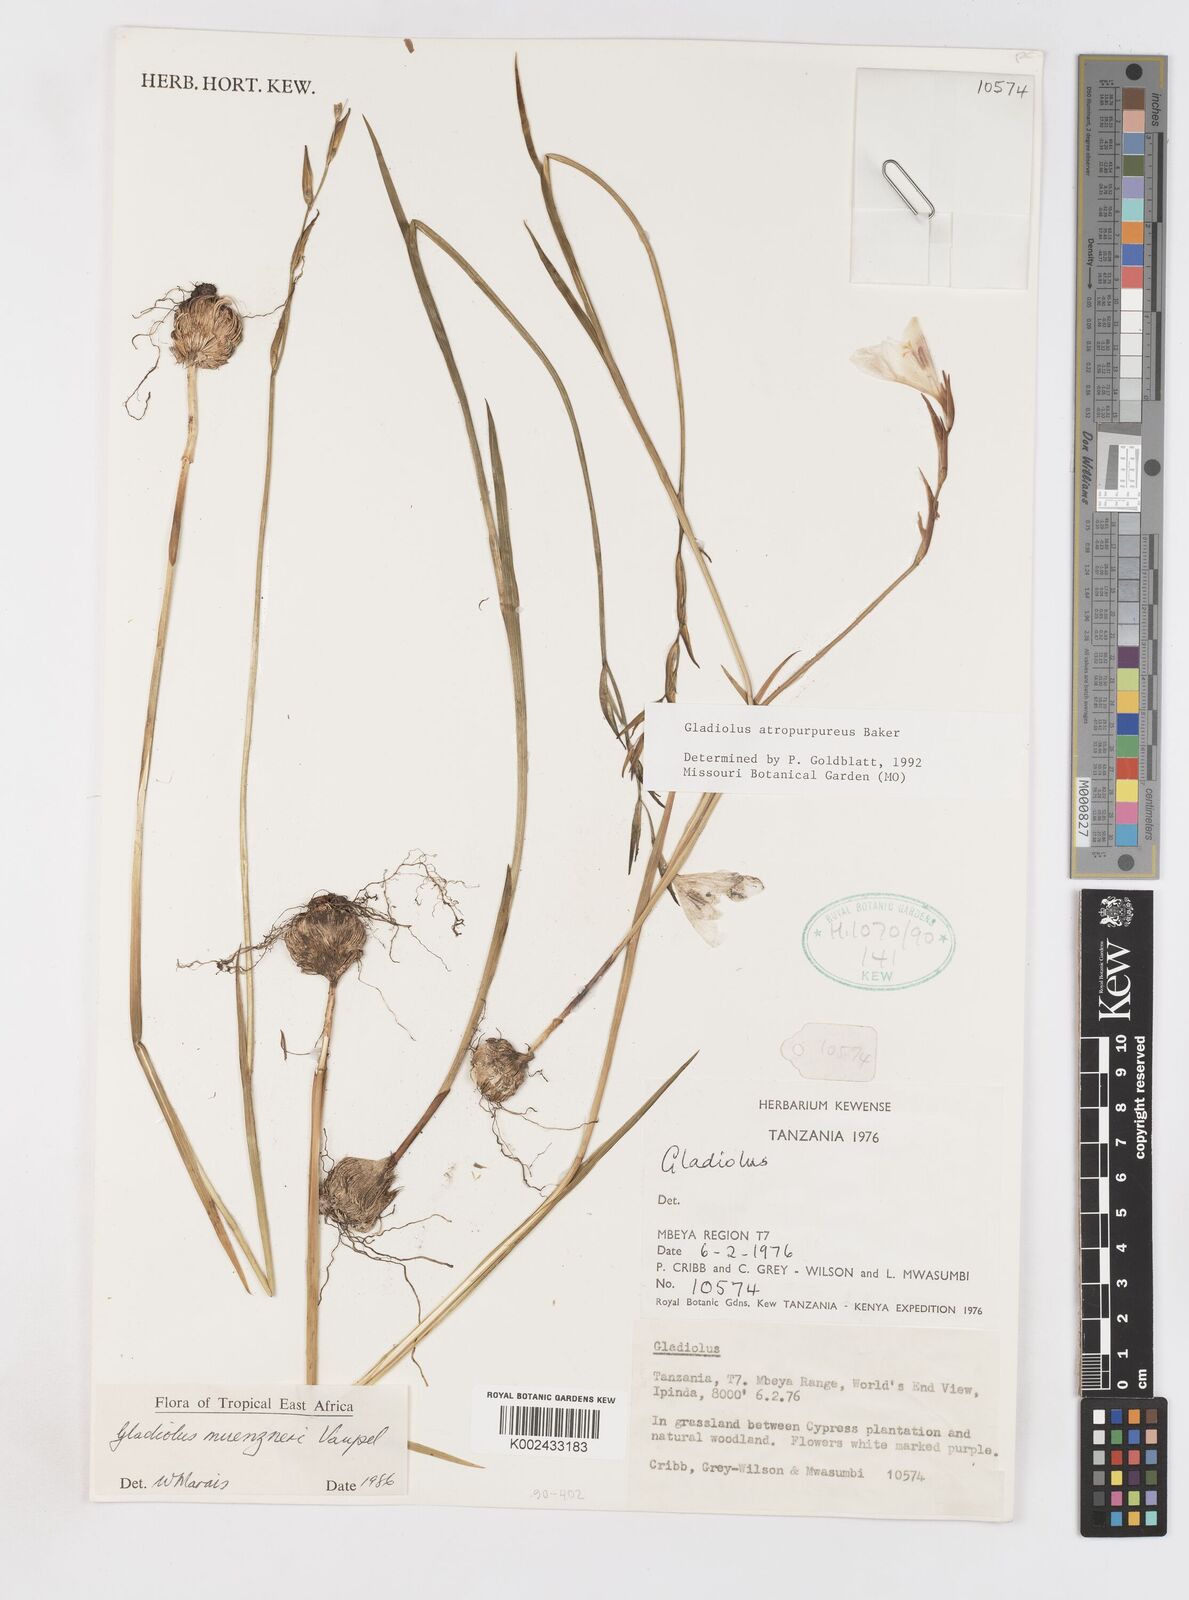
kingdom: Plantae
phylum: Tracheophyta
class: Liliopsida
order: Asparagales
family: Iridaceae
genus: Gladiolus
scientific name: Gladiolus atropurpureus
